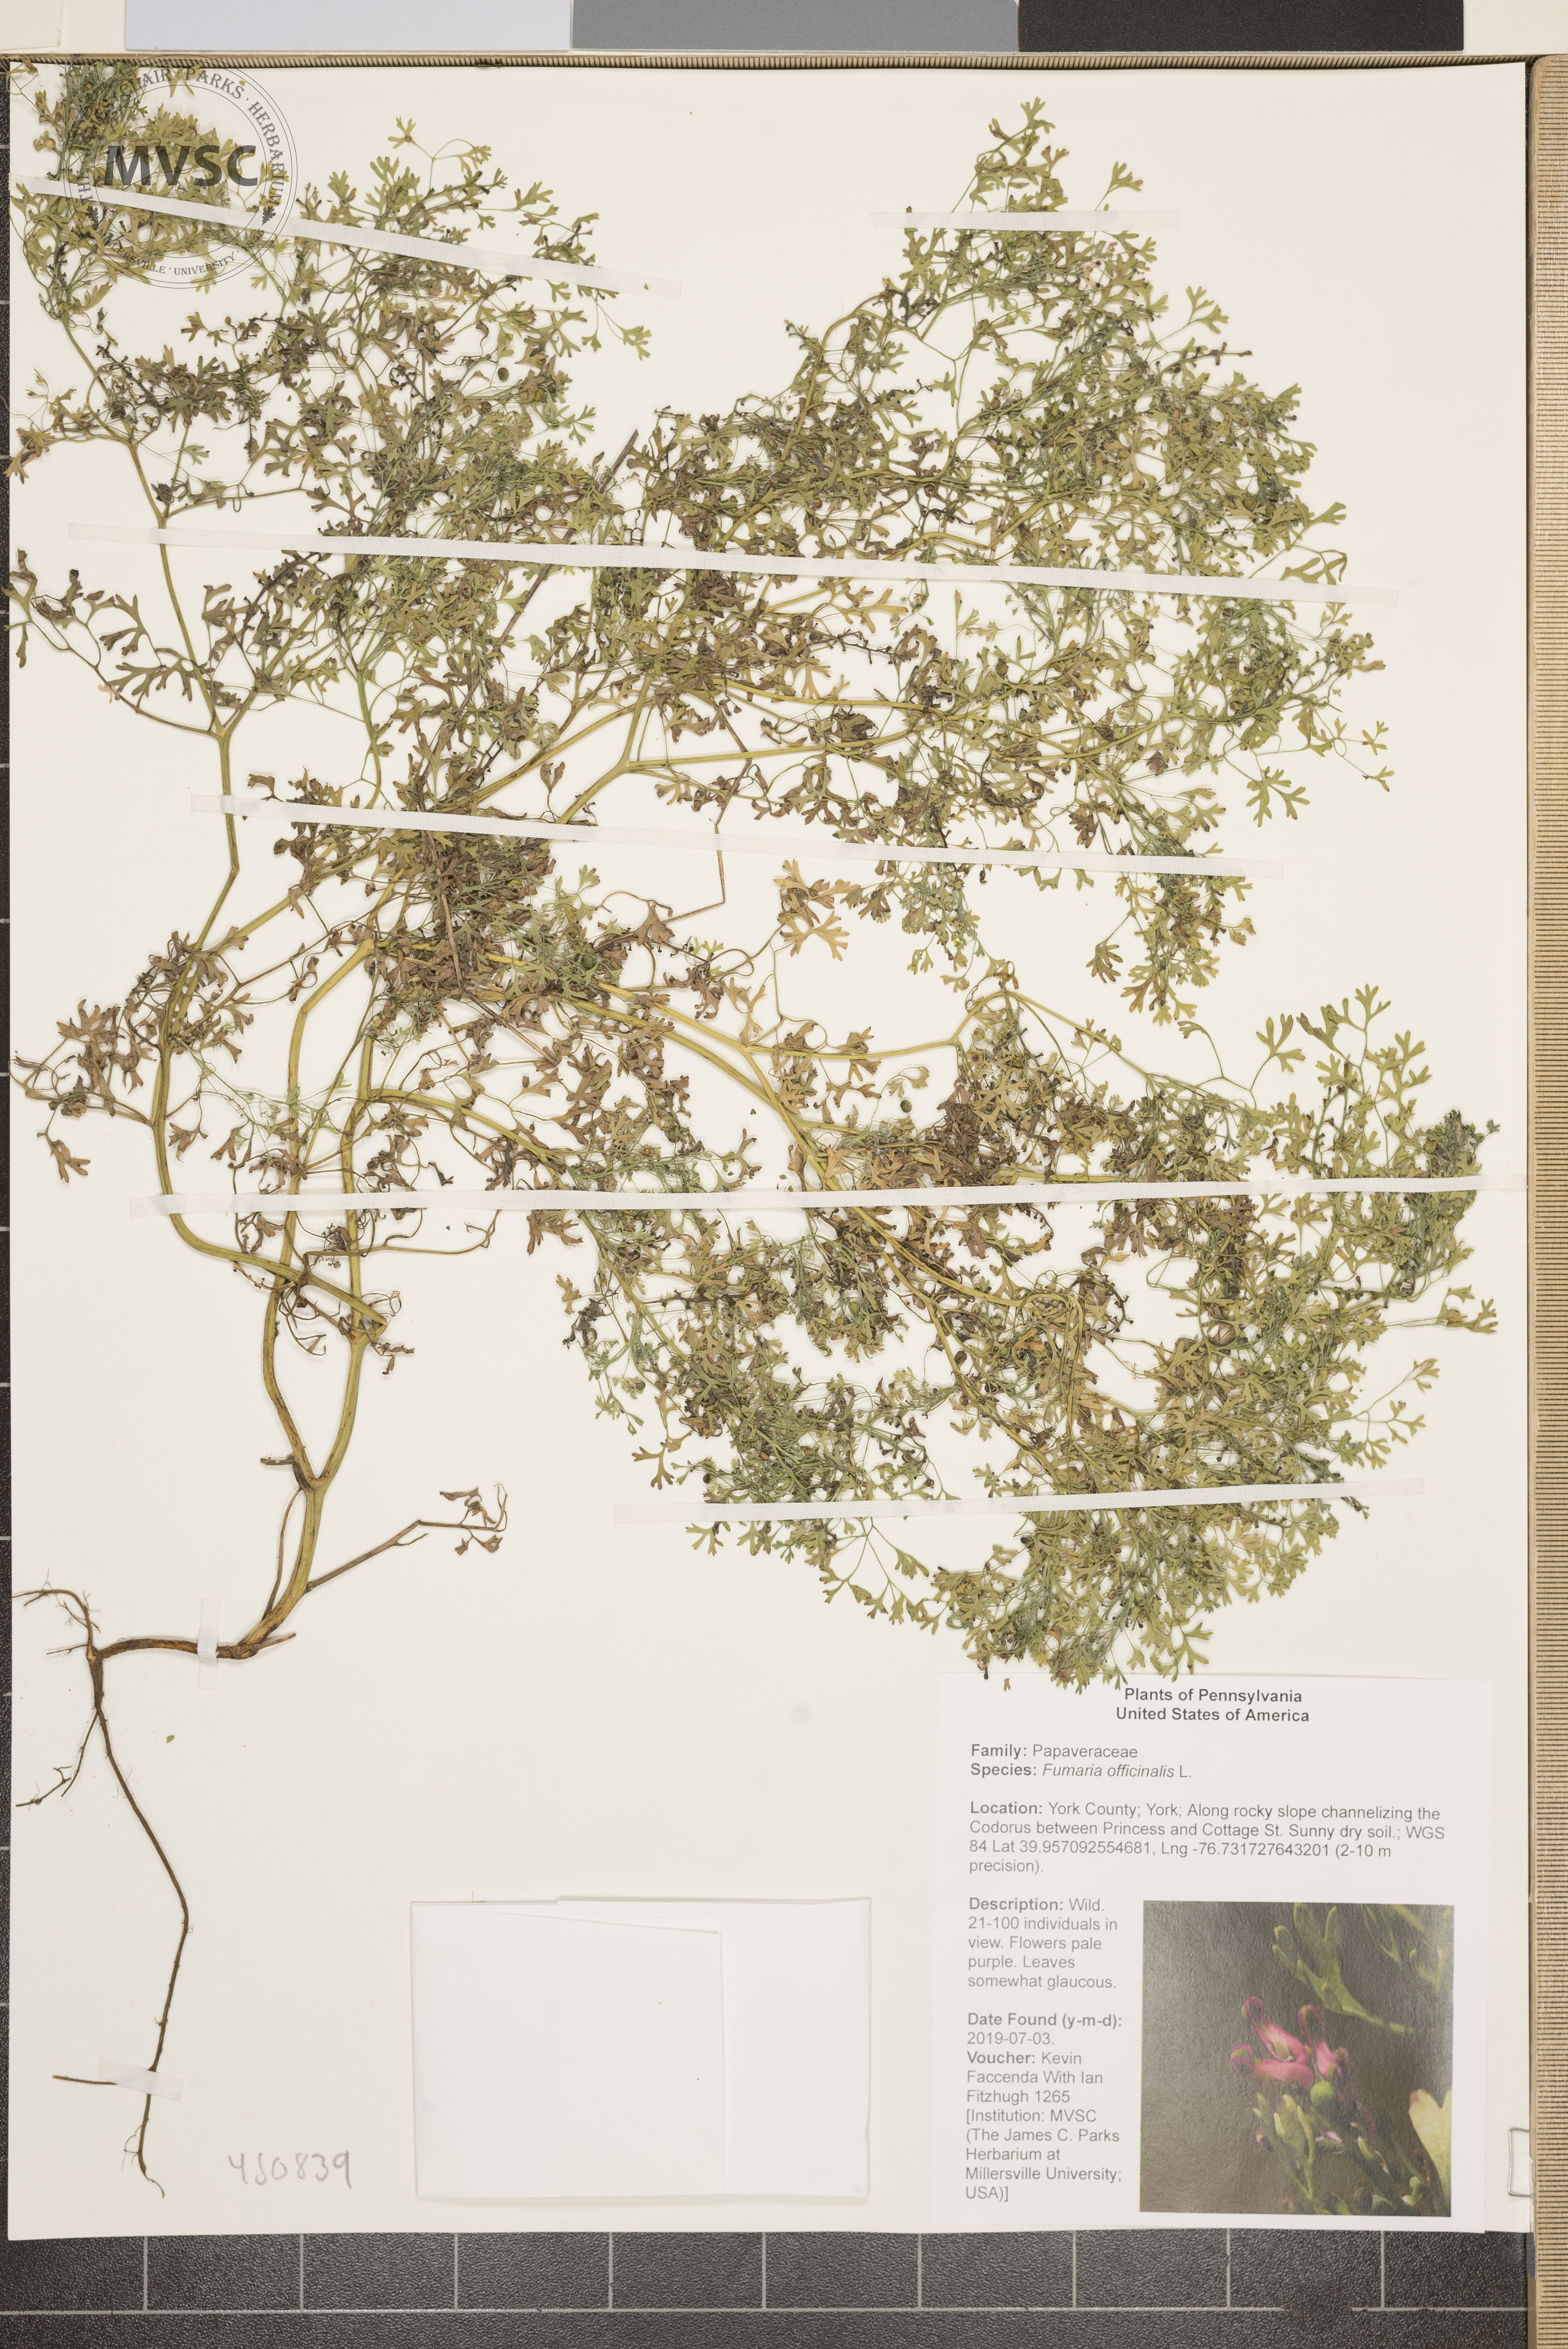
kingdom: Plantae
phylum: Tracheophyta
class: Magnoliopsida
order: Ranunculales
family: Papaveraceae
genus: Fumaria
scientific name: Fumaria officinalis
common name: Common fumitory
